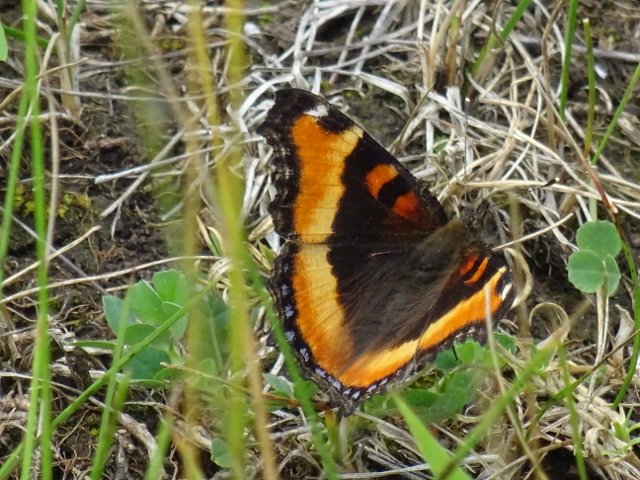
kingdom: Animalia
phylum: Arthropoda
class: Insecta
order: Lepidoptera
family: Nymphalidae
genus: Aglais
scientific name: Aglais milberti
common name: Milbert's Tortoiseshell
